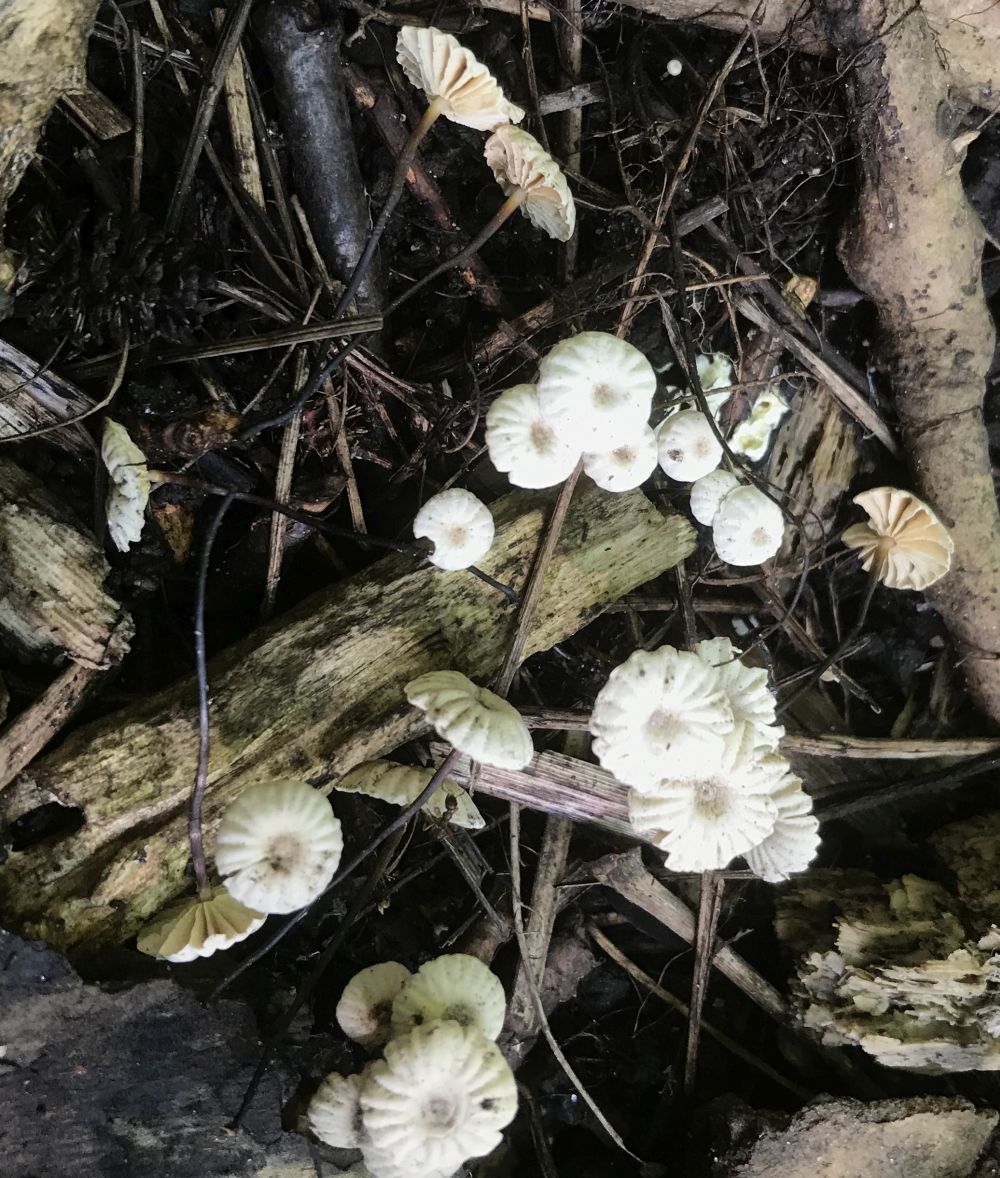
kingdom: Fungi
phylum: Basidiomycota
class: Agaricomycetes
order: Agaricales
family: Marasmiaceae
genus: Marasmius
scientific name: Marasmius rotula
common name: hjul-bruskhat
